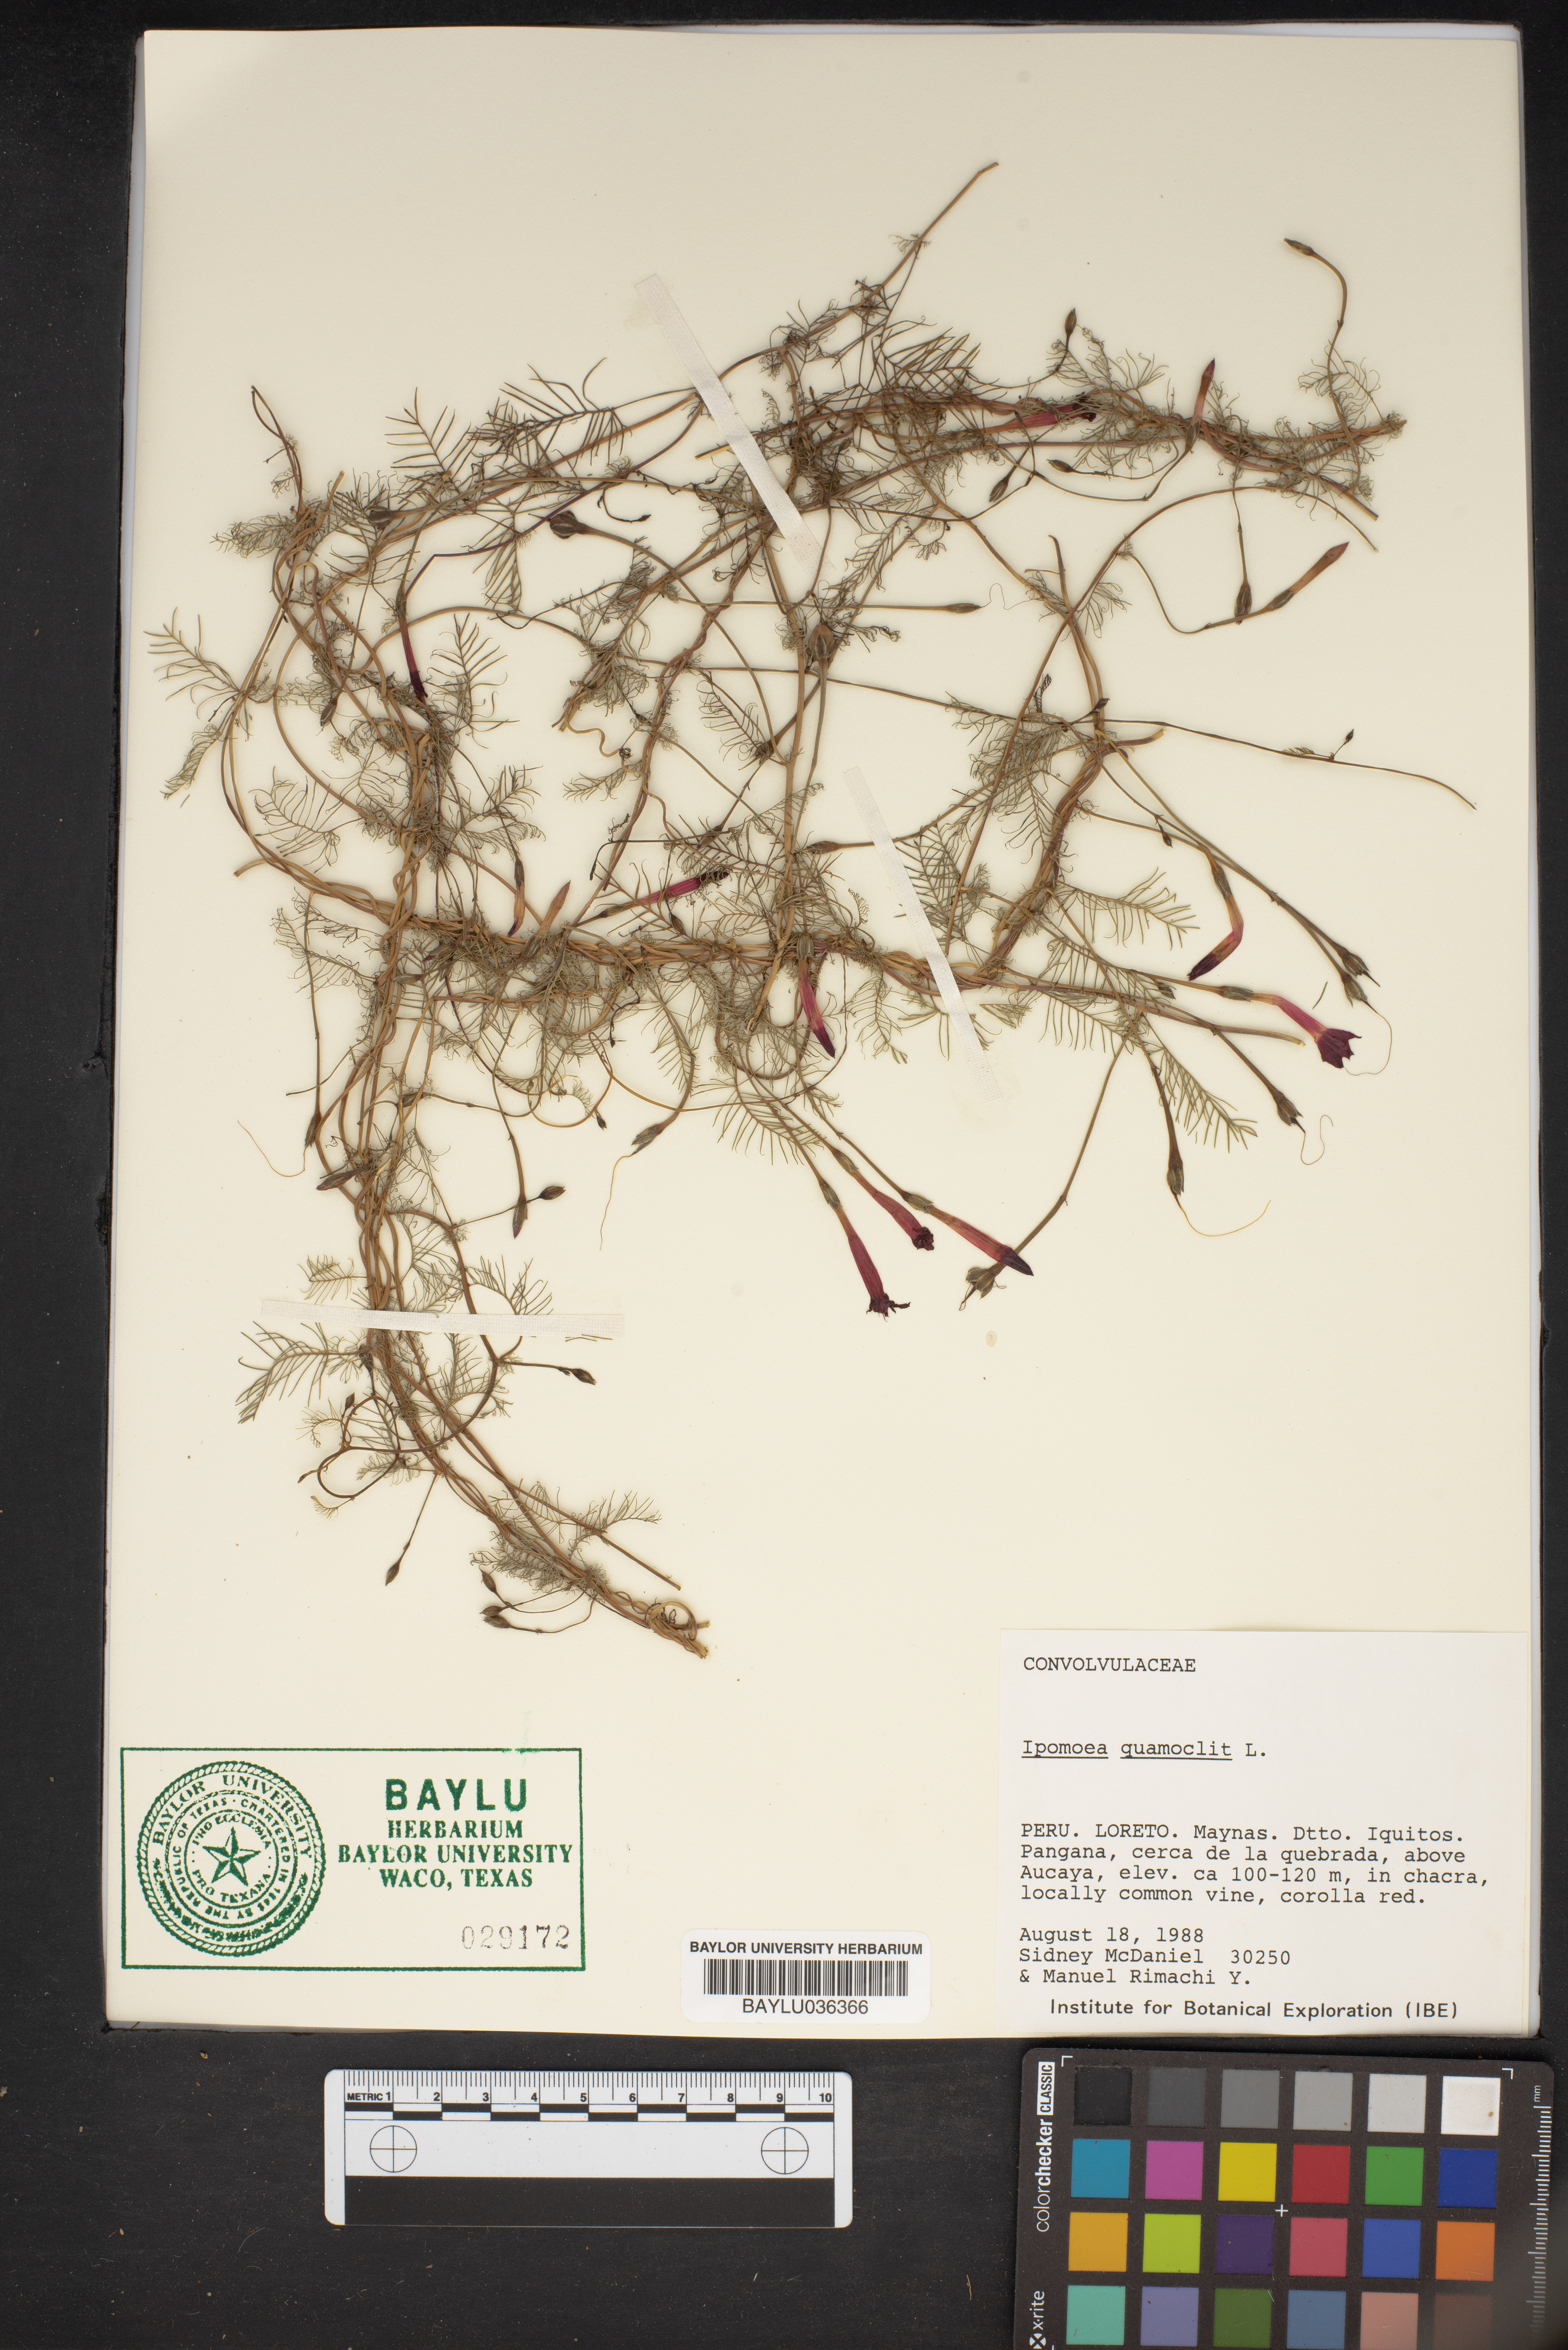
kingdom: Plantae
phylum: Tracheophyta
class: Magnoliopsida
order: Solanales
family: Convolvulaceae
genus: Ipomoea
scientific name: Ipomoea quamoclit
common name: Cypress vine
